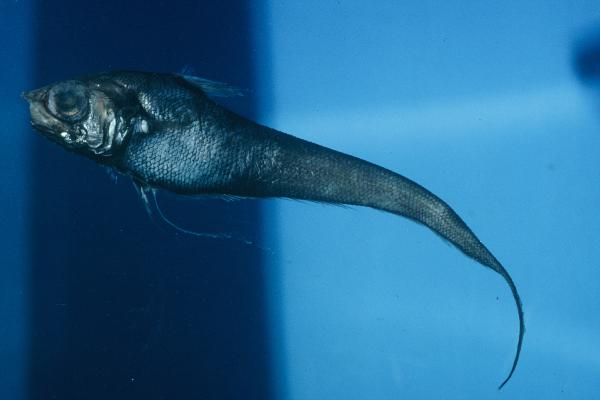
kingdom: Animalia
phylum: Chordata
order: Gadiformes
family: Macrouridae
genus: Nezumia
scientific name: Nezumia umbracincta
